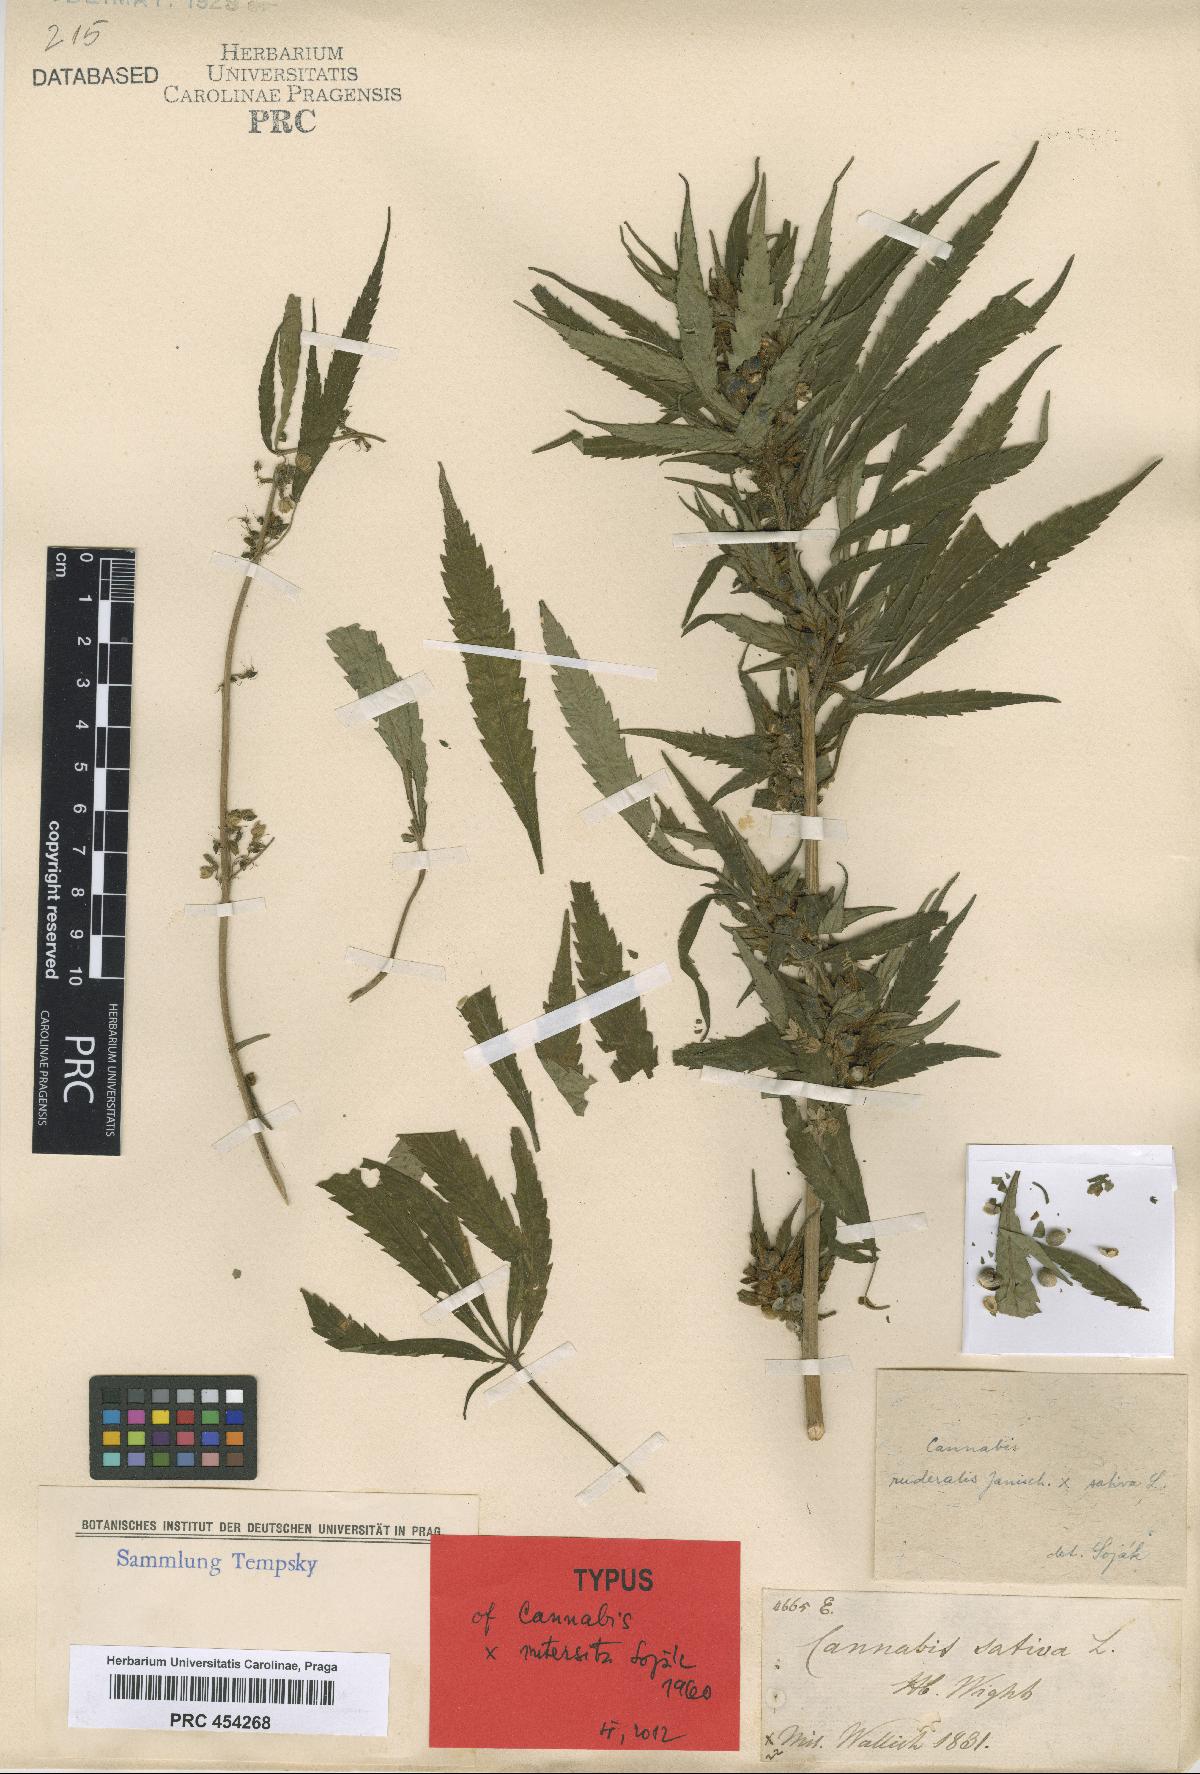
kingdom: Plantae
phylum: Tracheophyta
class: Magnoliopsida
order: Rosales
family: Cannabaceae
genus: Cannabis
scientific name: Cannabis sativa
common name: Hemp
